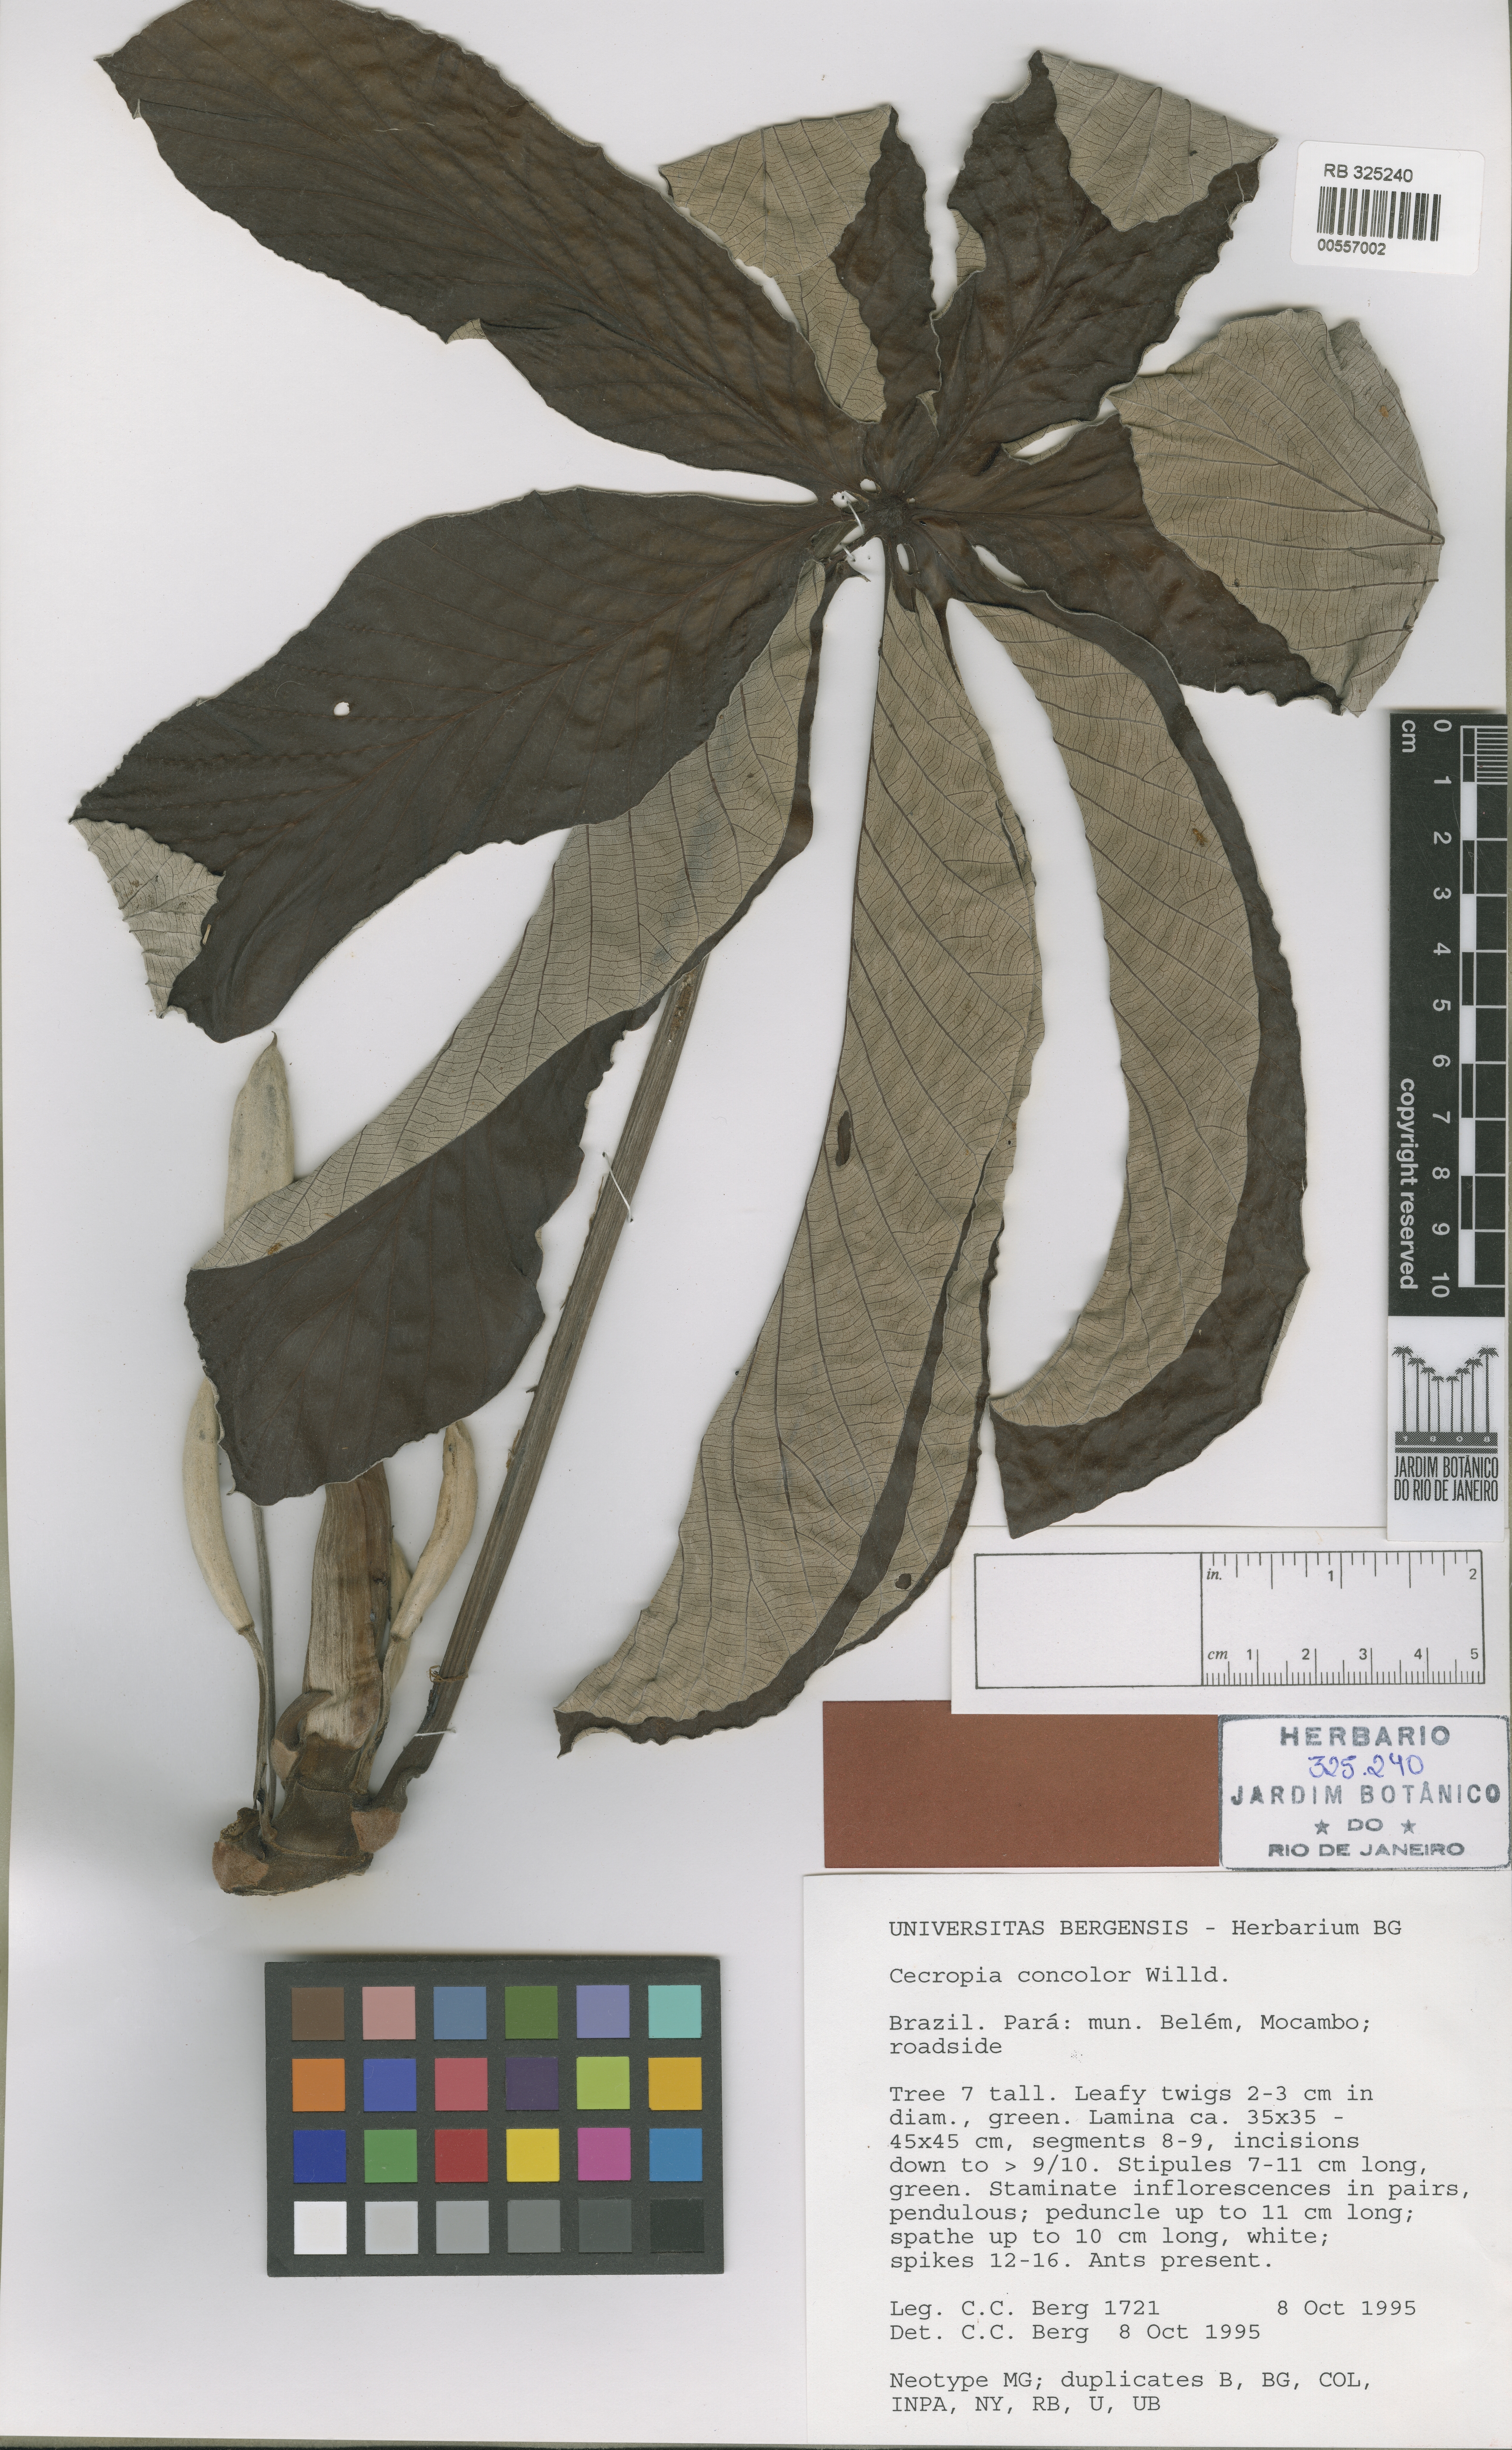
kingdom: Plantae
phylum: Tracheophyta
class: Magnoliopsida
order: Rosales
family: Urticaceae
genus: Cecropia
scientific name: Cecropia concolor
